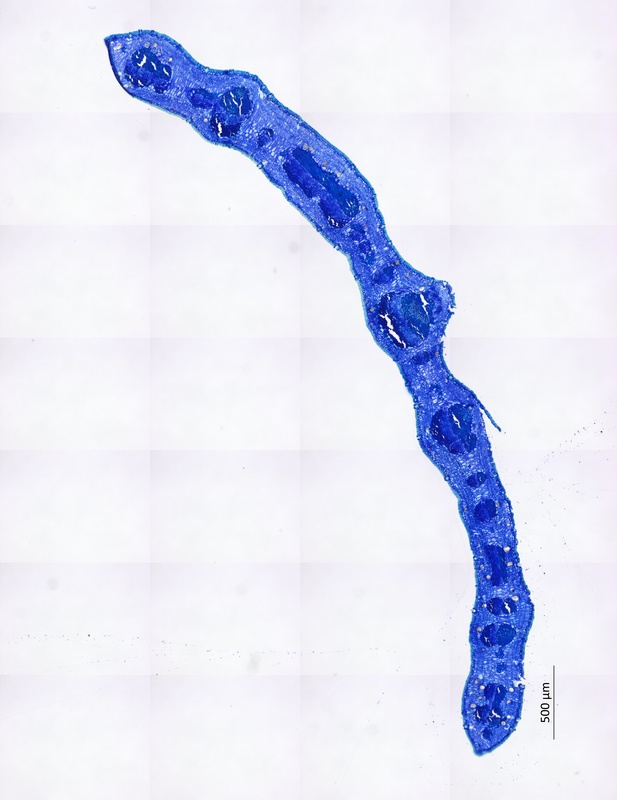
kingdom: Plantae
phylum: Tracheophyta
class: Magnoliopsida
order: Zygophyllales
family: Zygophyllaceae
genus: Balanites
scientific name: Balanites glabra
